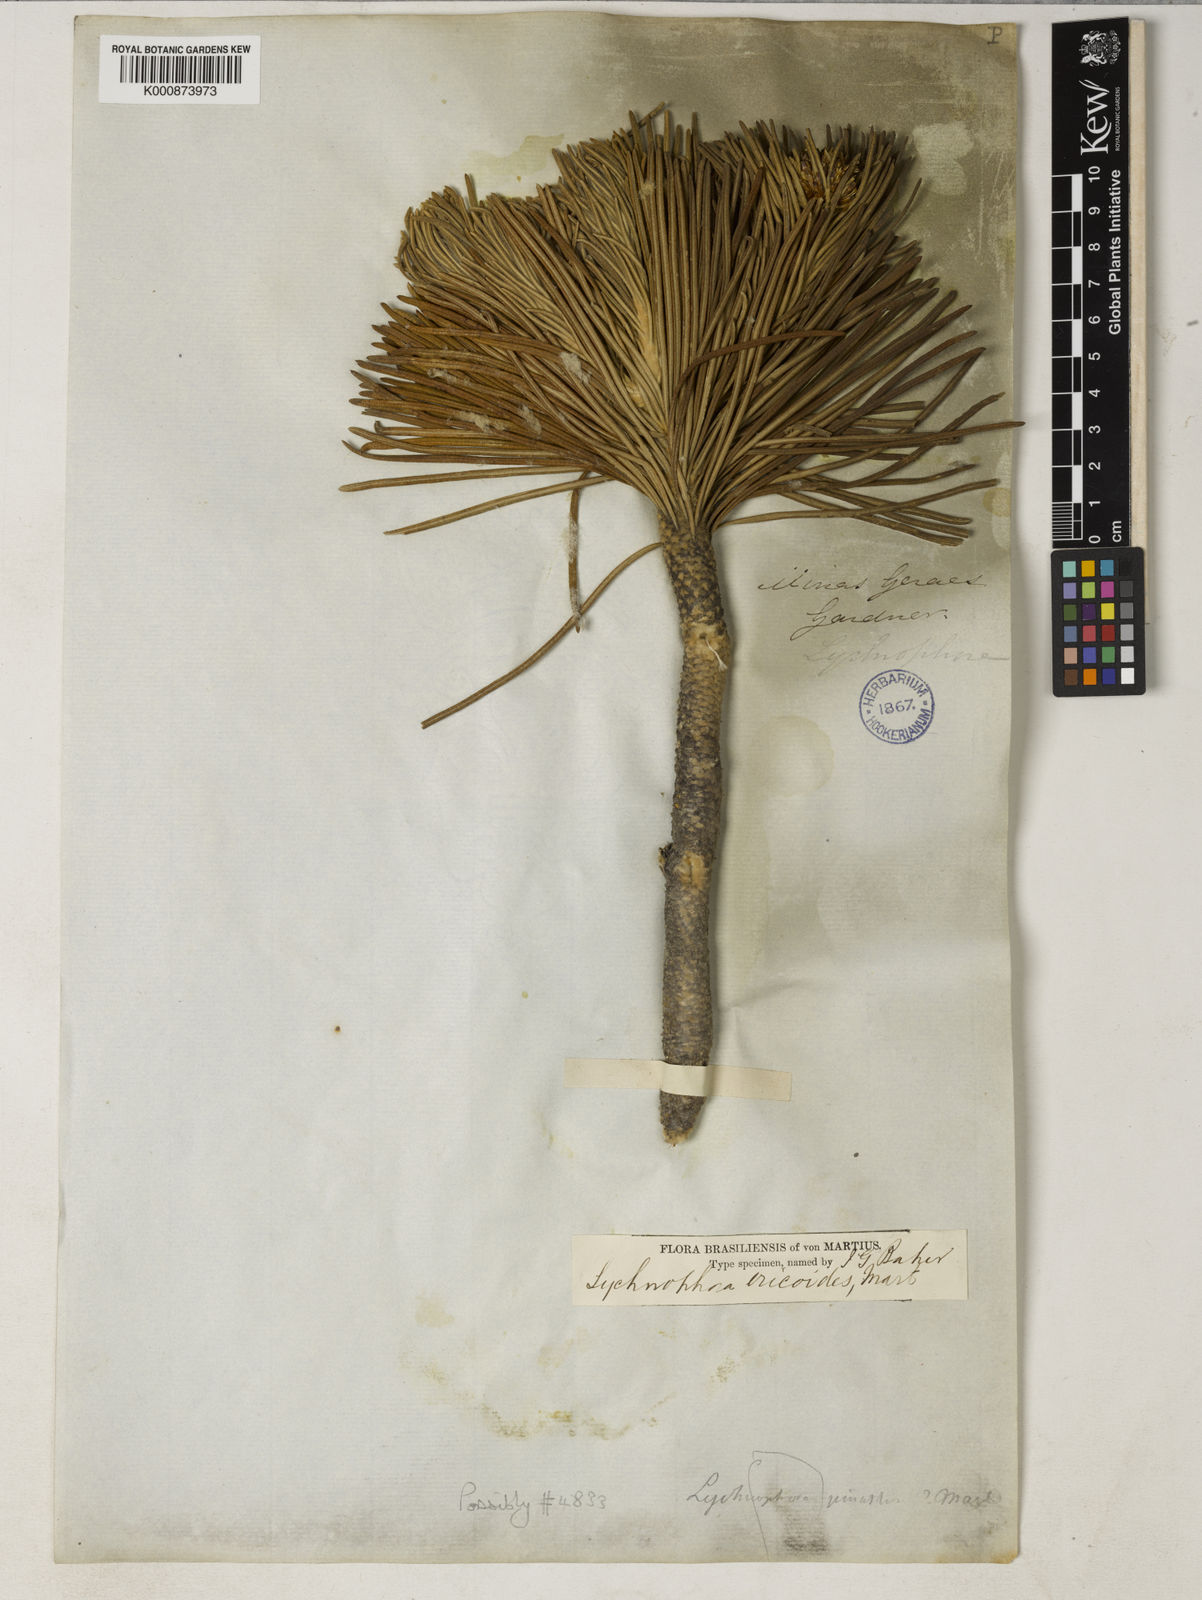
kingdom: Plantae
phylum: Tracheophyta
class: Magnoliopsida
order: Asterales
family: Asteraceae
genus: Lychnophora
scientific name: Lychnophora ericoides
